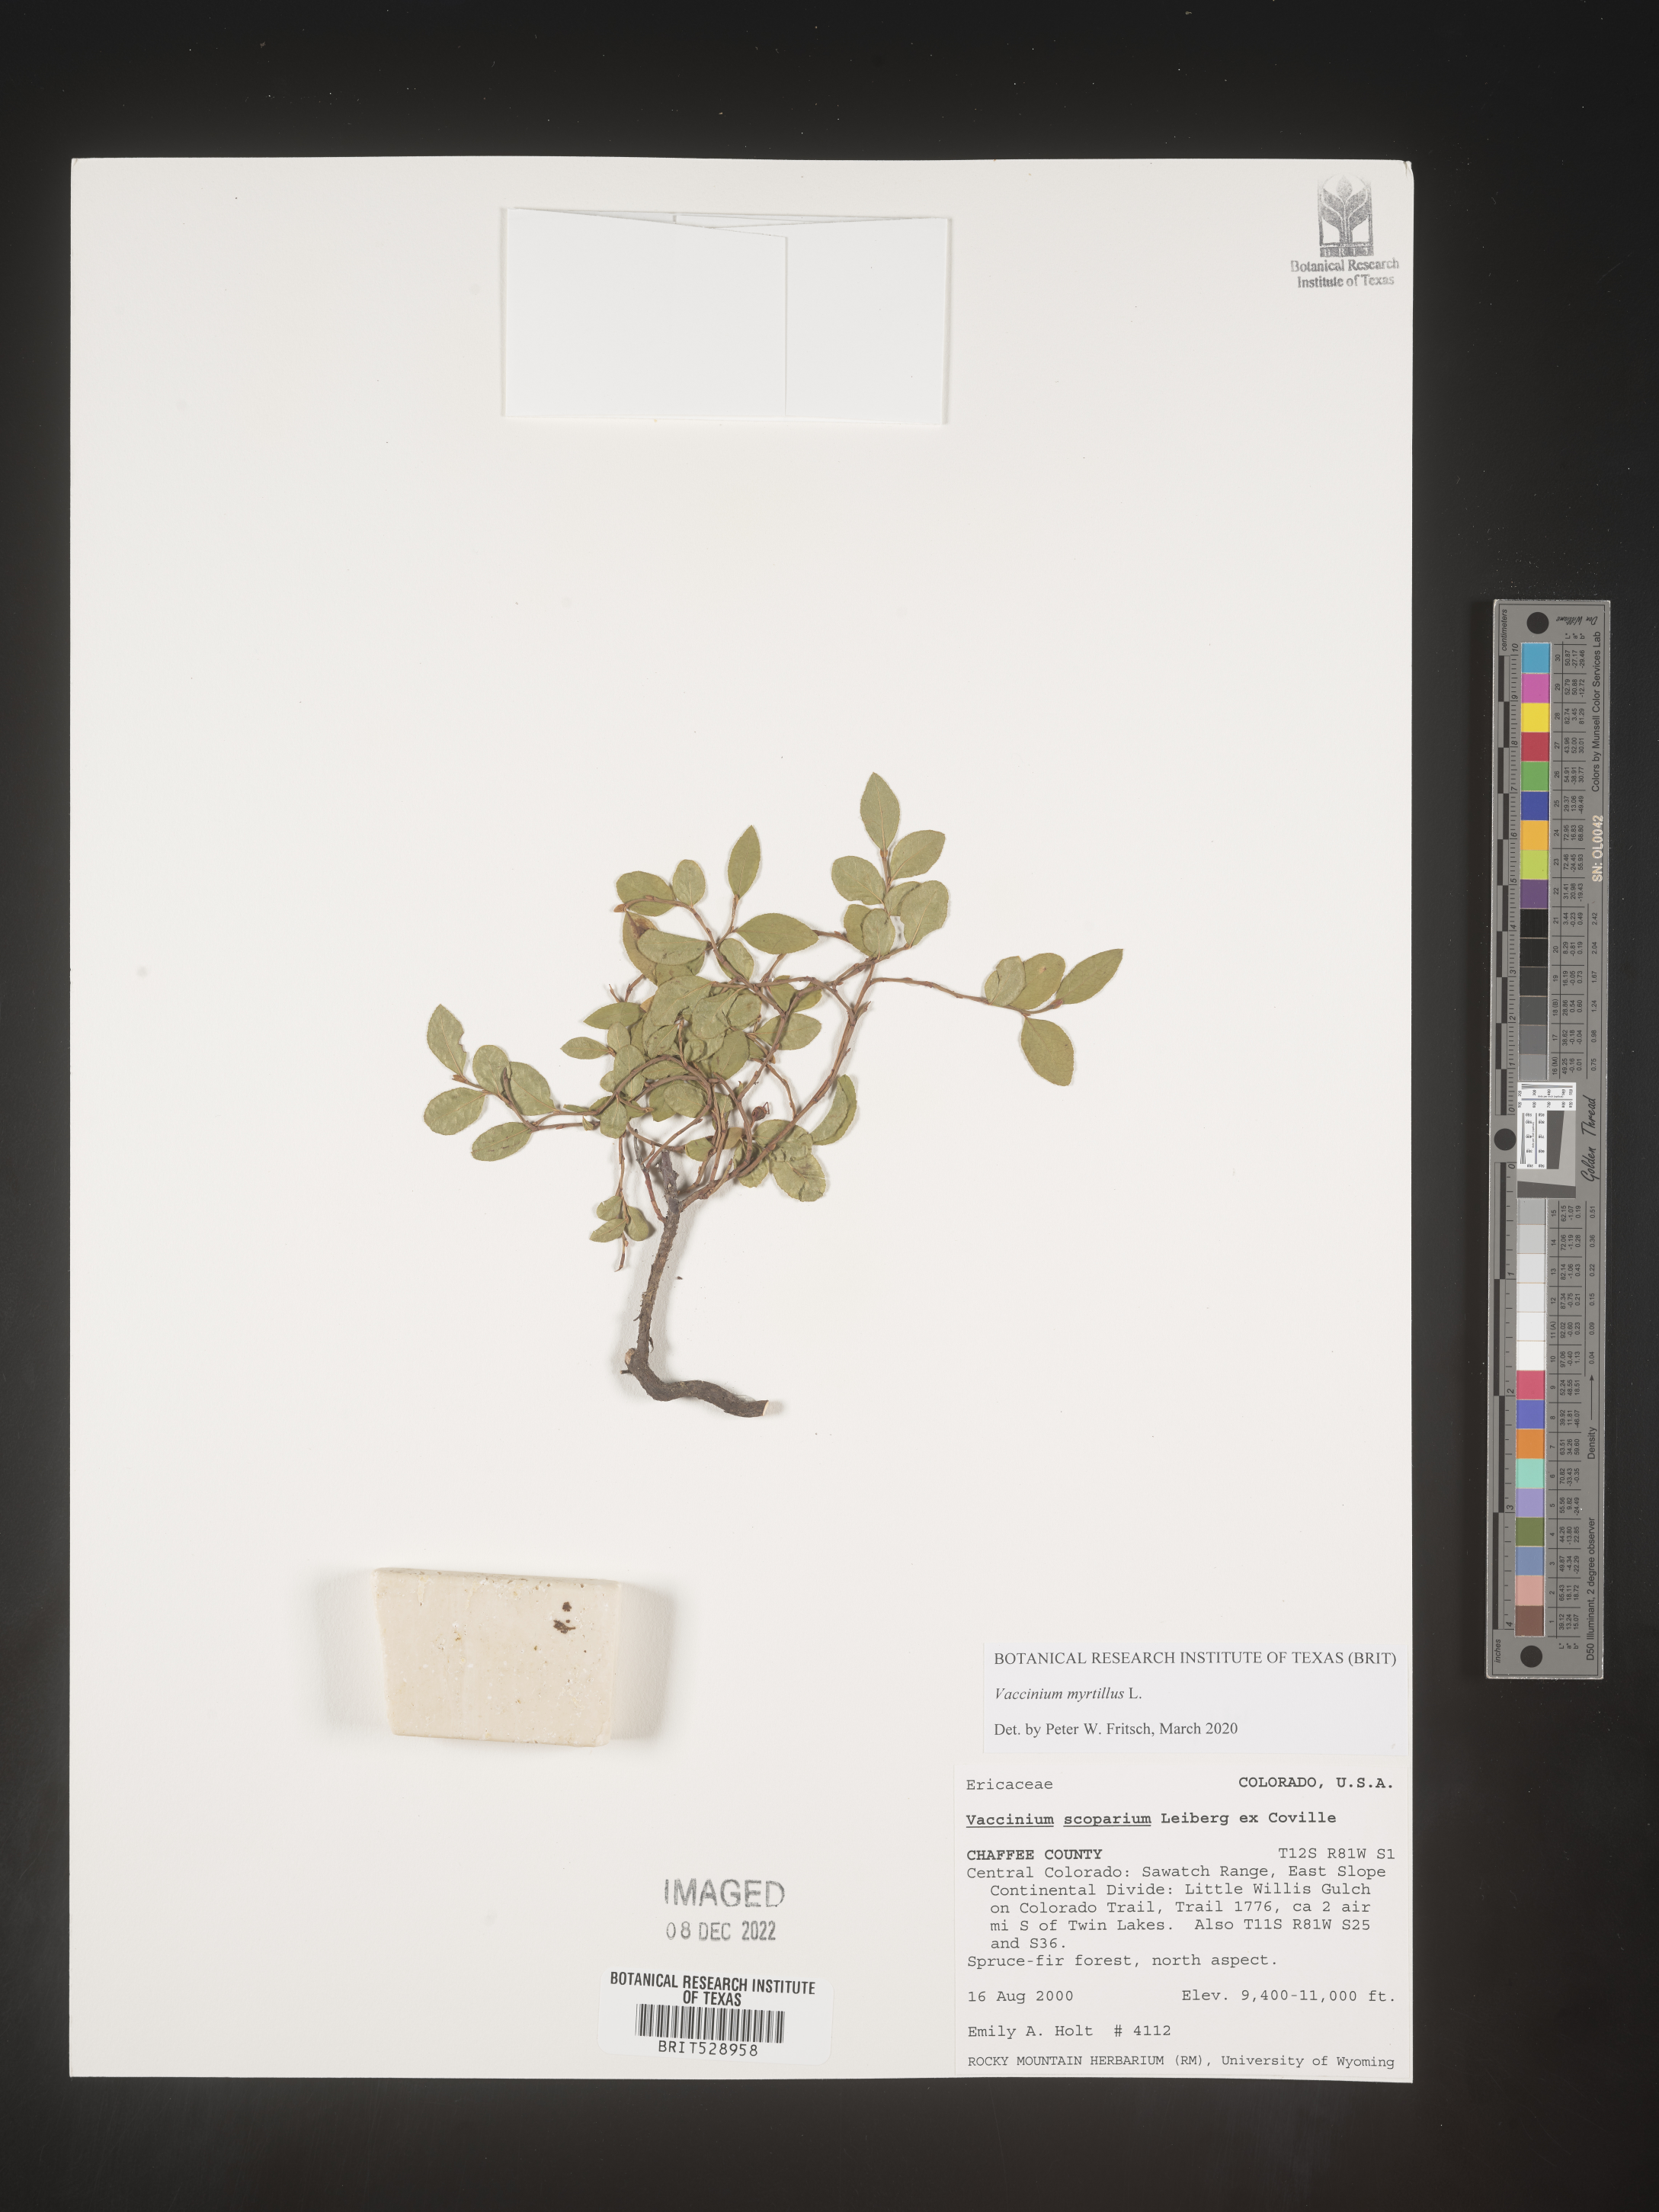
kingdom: Plantae
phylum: Tracheophyta
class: Magnoliopsida
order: Ericales
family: Ericaceae
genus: Vaccinium
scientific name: Vaccinium myrtillus
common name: Bilberry
